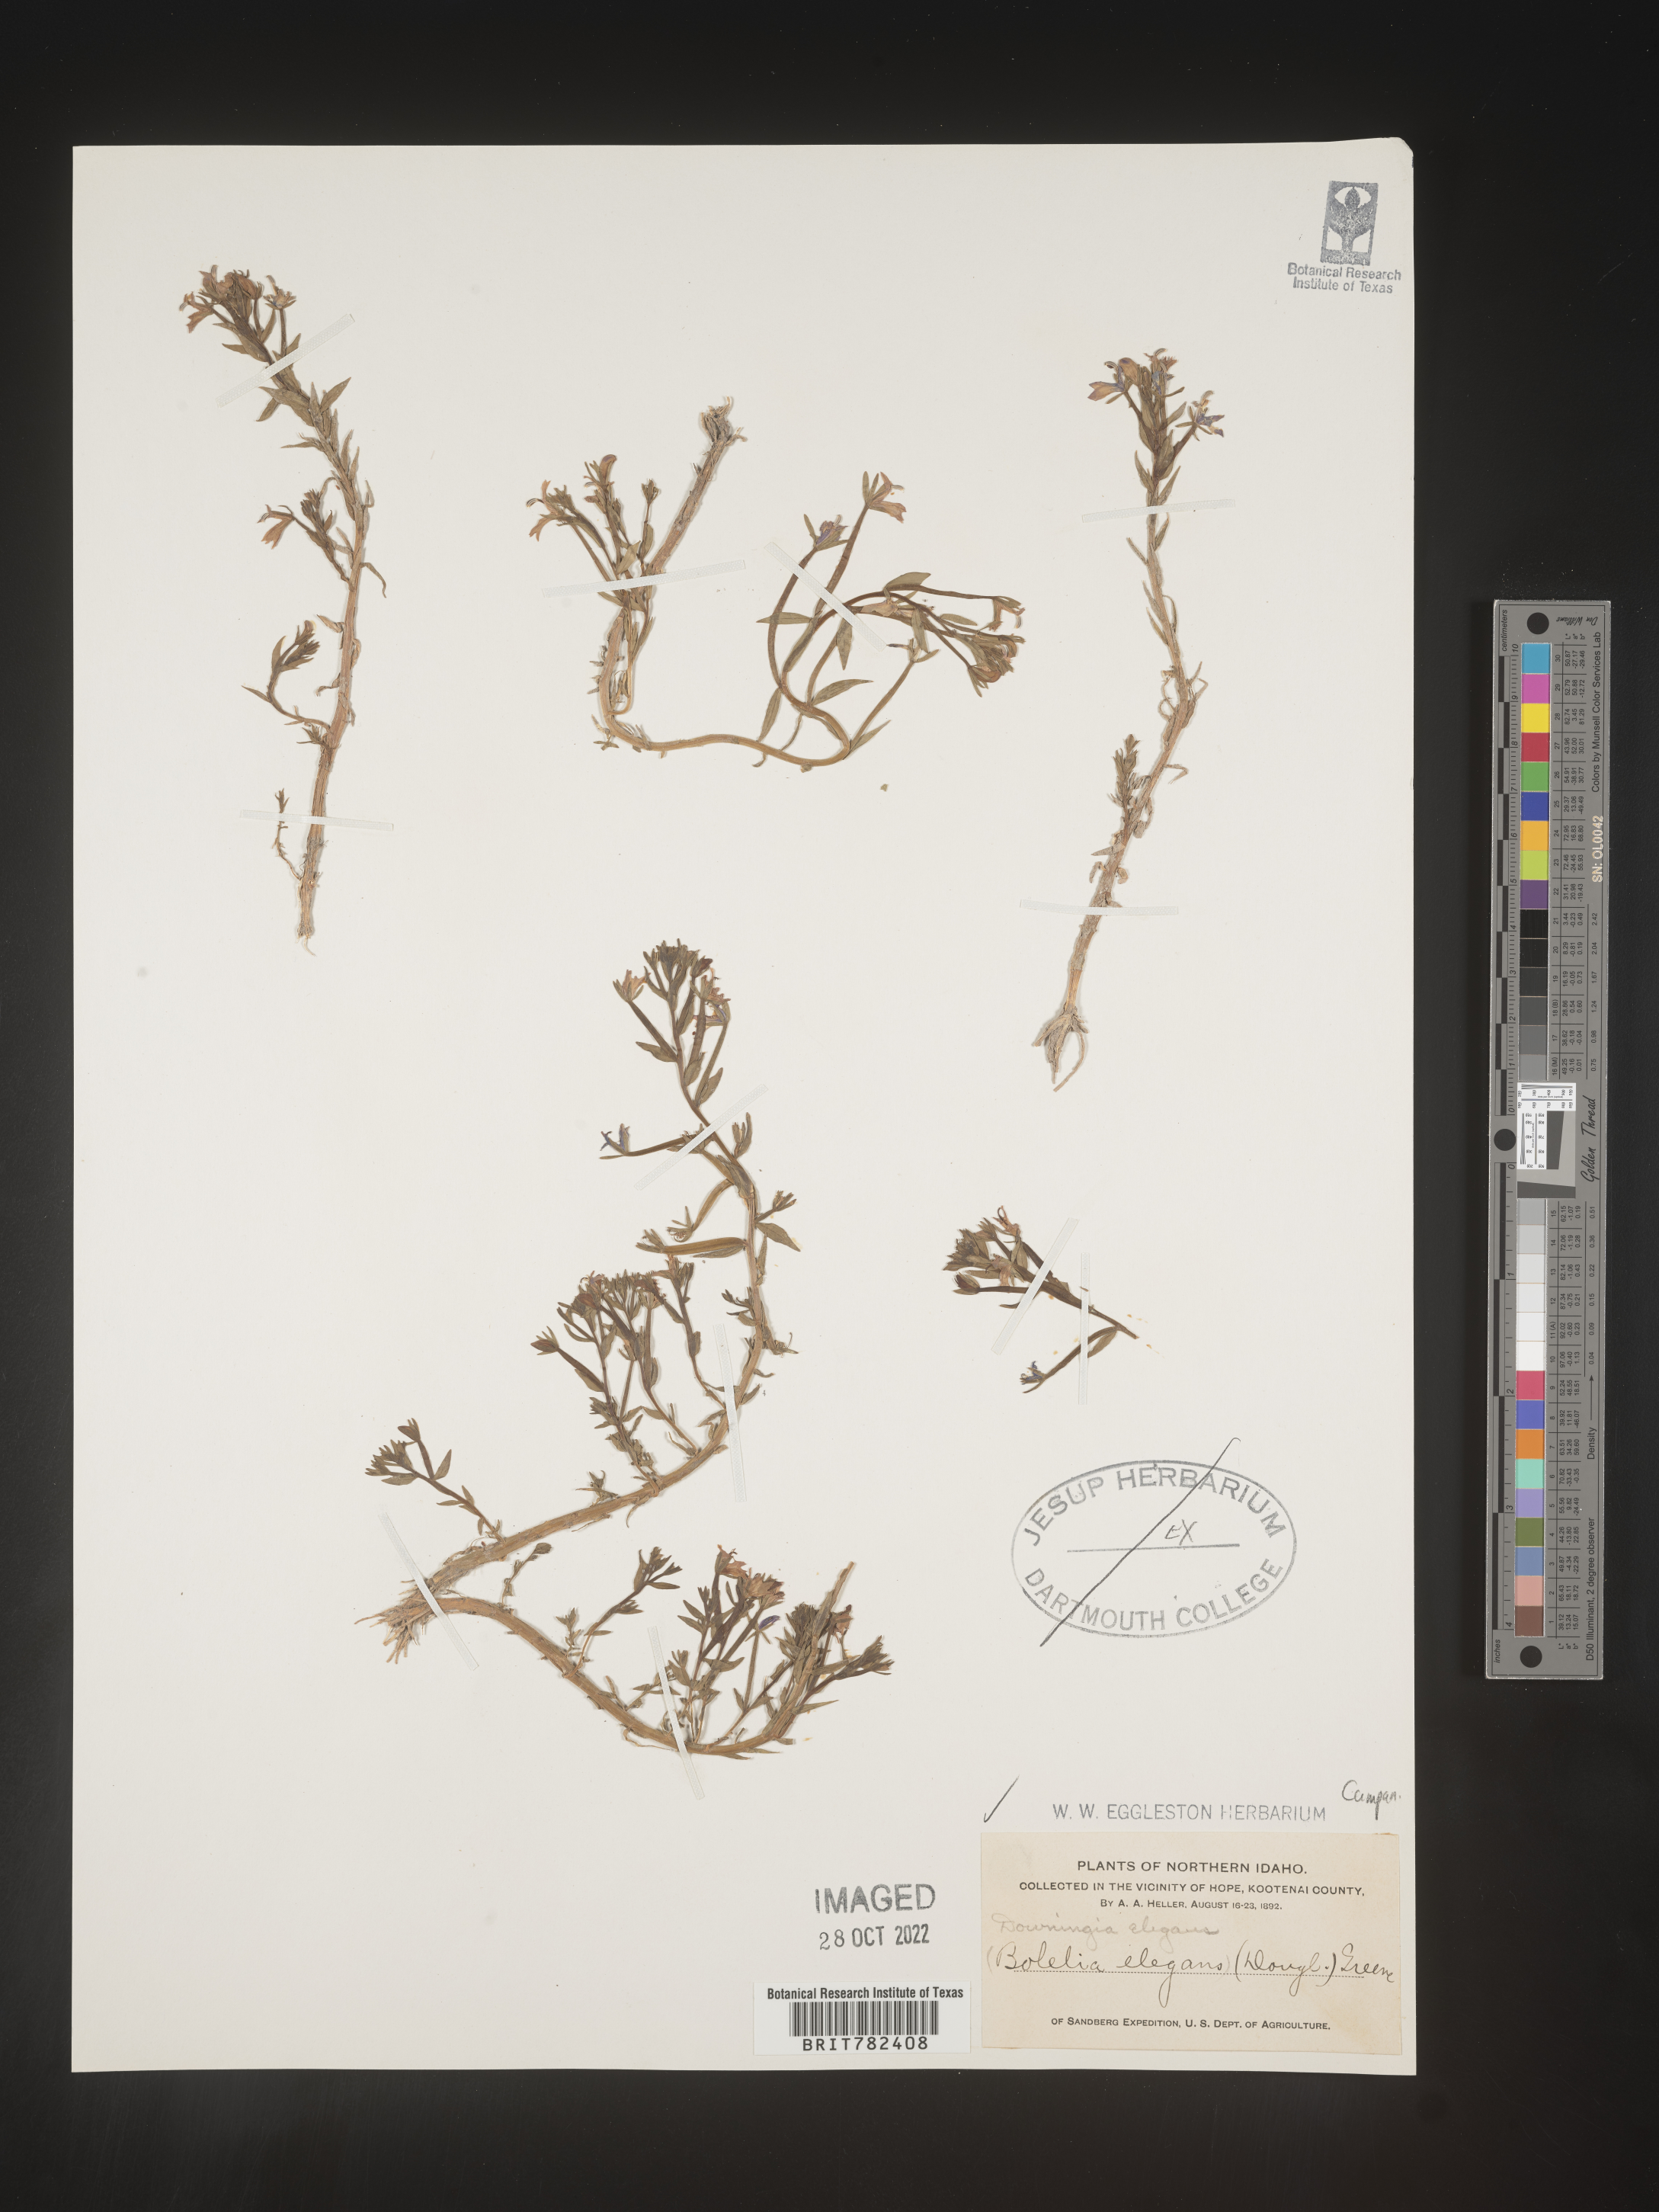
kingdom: Plantae
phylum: Tracheophyta
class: Magnoliopsida
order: Asterales
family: Campanulaceae
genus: Downingia
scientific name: Downingia
